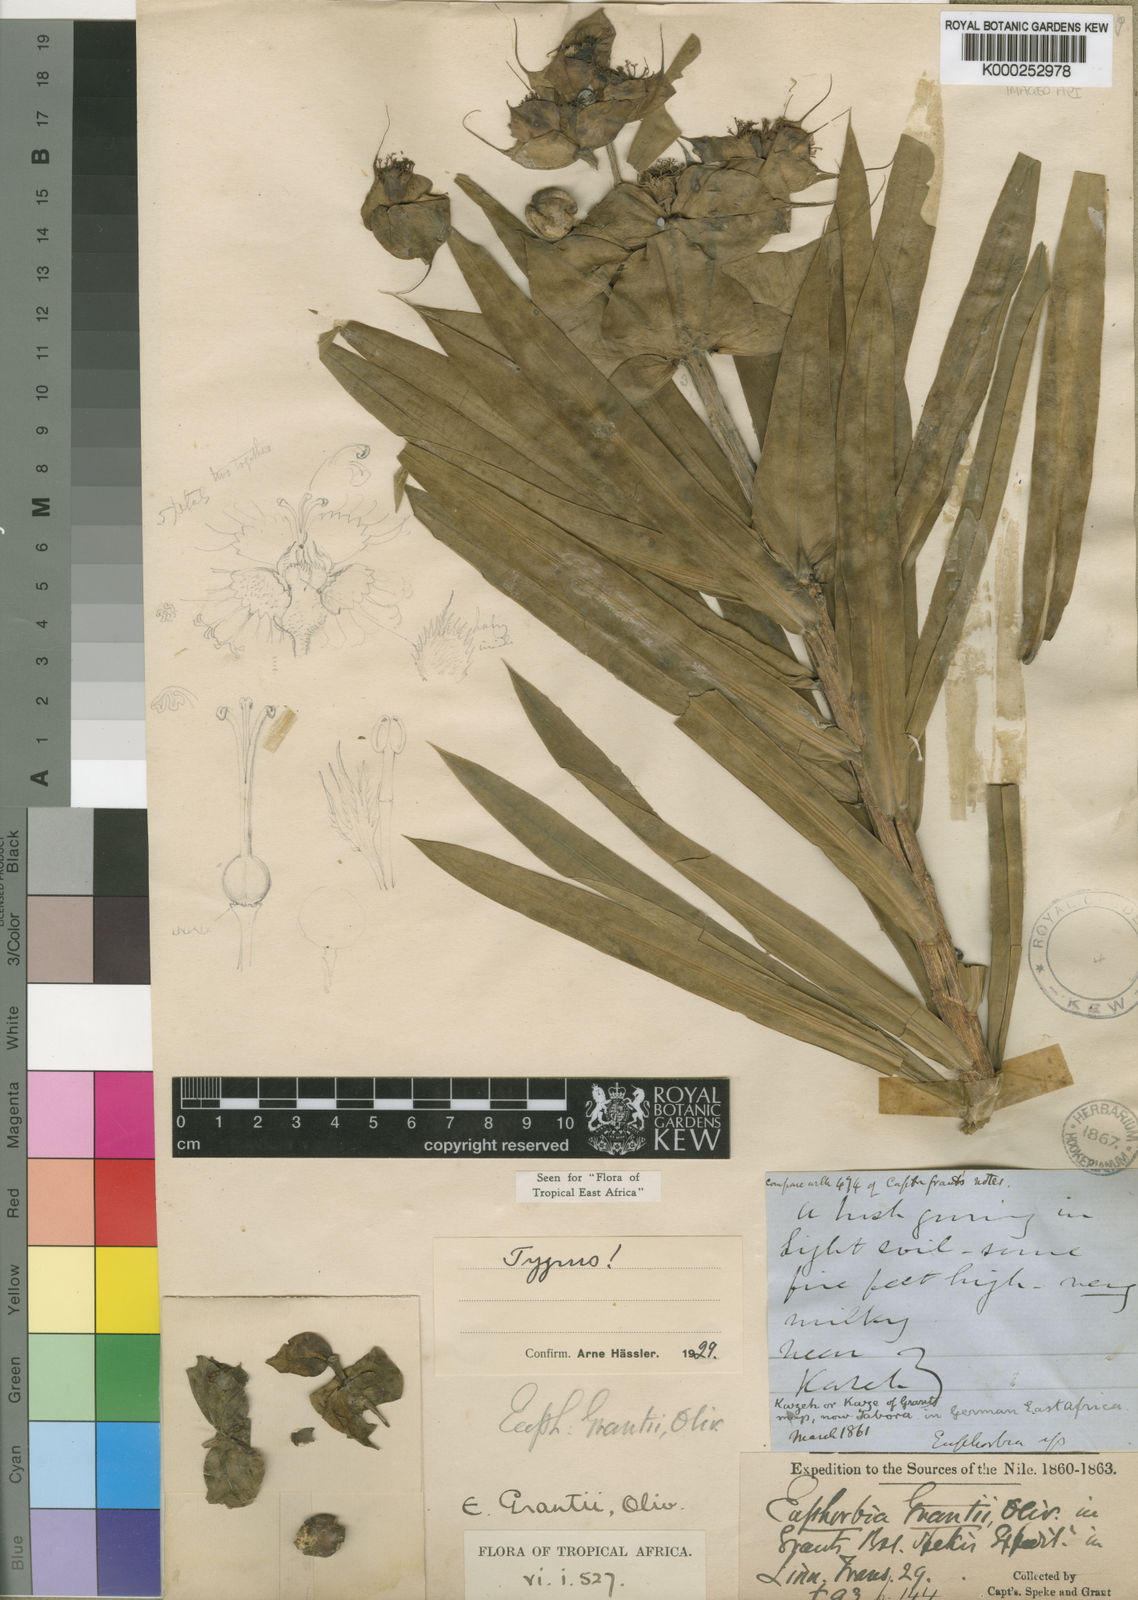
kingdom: Plantae
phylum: Tracheophyta
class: Magnoliopsida
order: Malpighiales
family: Euphorbiaceae
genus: Euphorbia
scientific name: Euphorbia grantii
